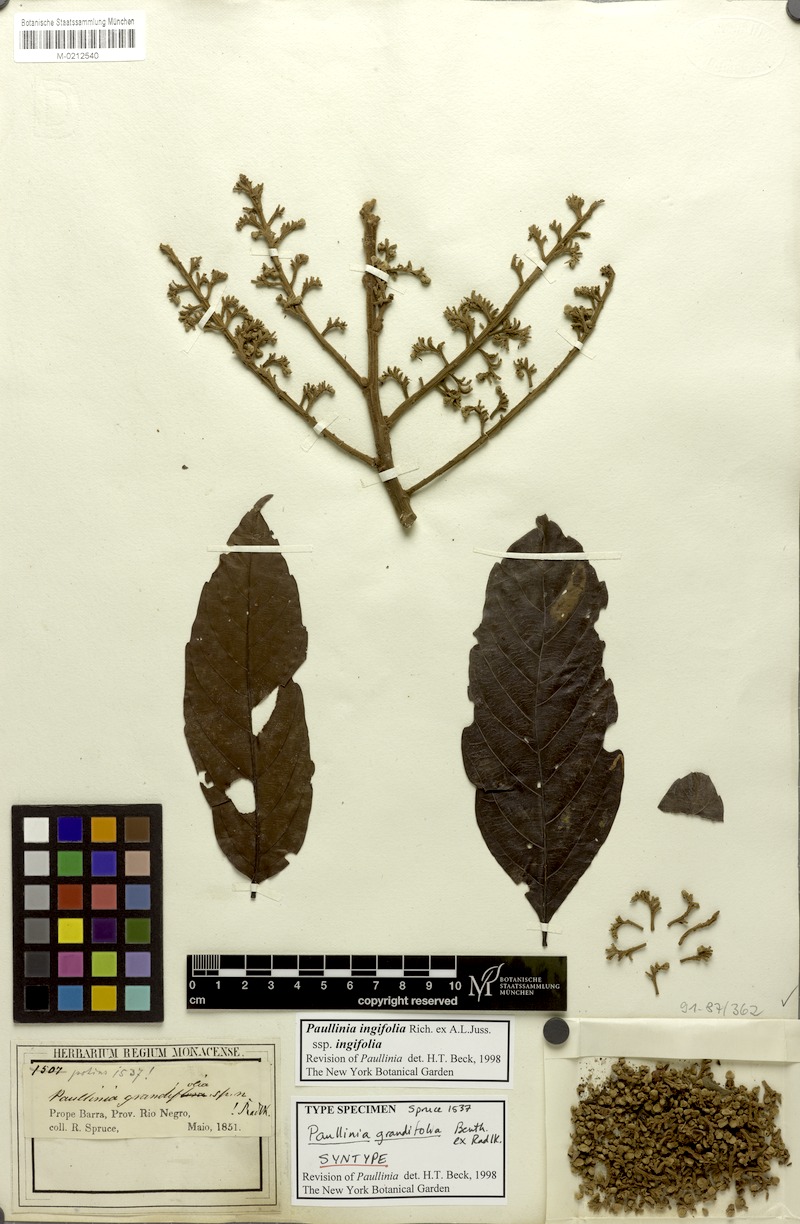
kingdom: Plantae
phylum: Tracheophyta
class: Magnoliopsida
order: Sapindales
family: Sapindaceae
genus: Paullinia
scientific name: Paullinia ingifolia
